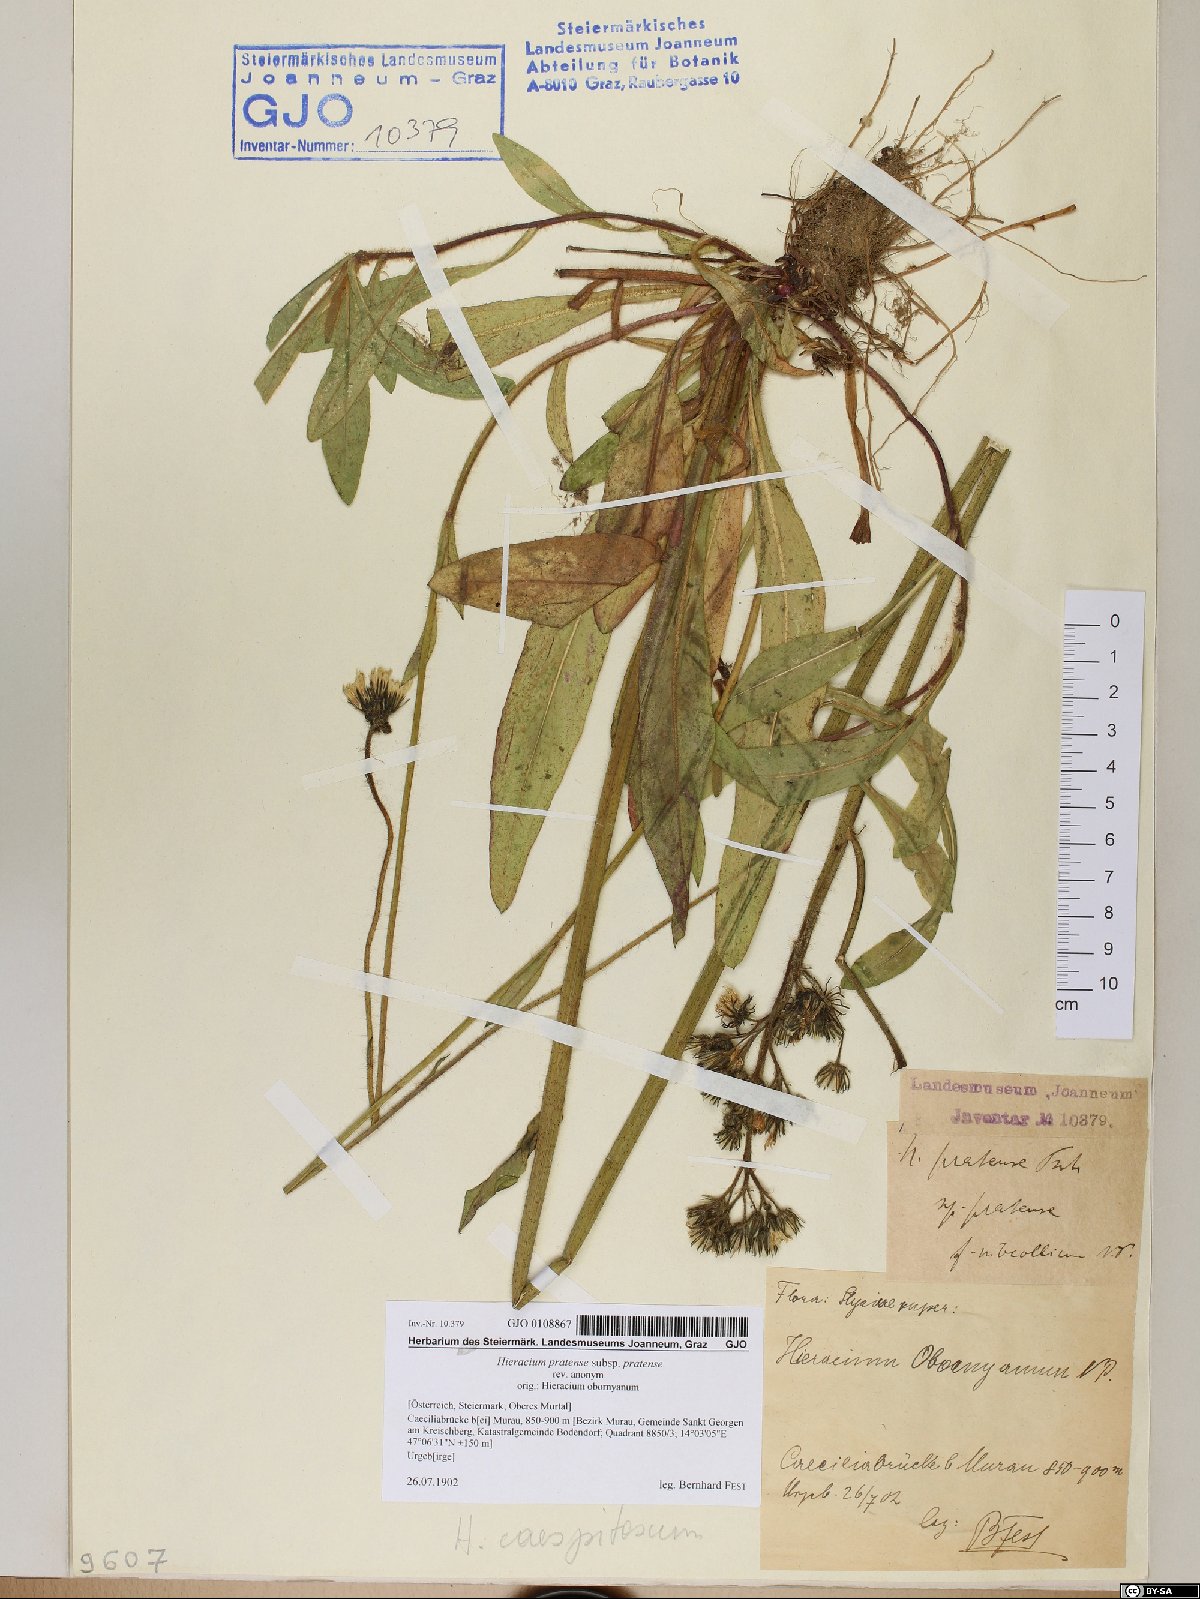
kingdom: Plantae
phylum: Tracheophyta
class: Magnoliopsida
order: Asterales
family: Asteraceae
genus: Pilosella
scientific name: Pilosella caespitosa
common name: Yellow fox-and-cubs
